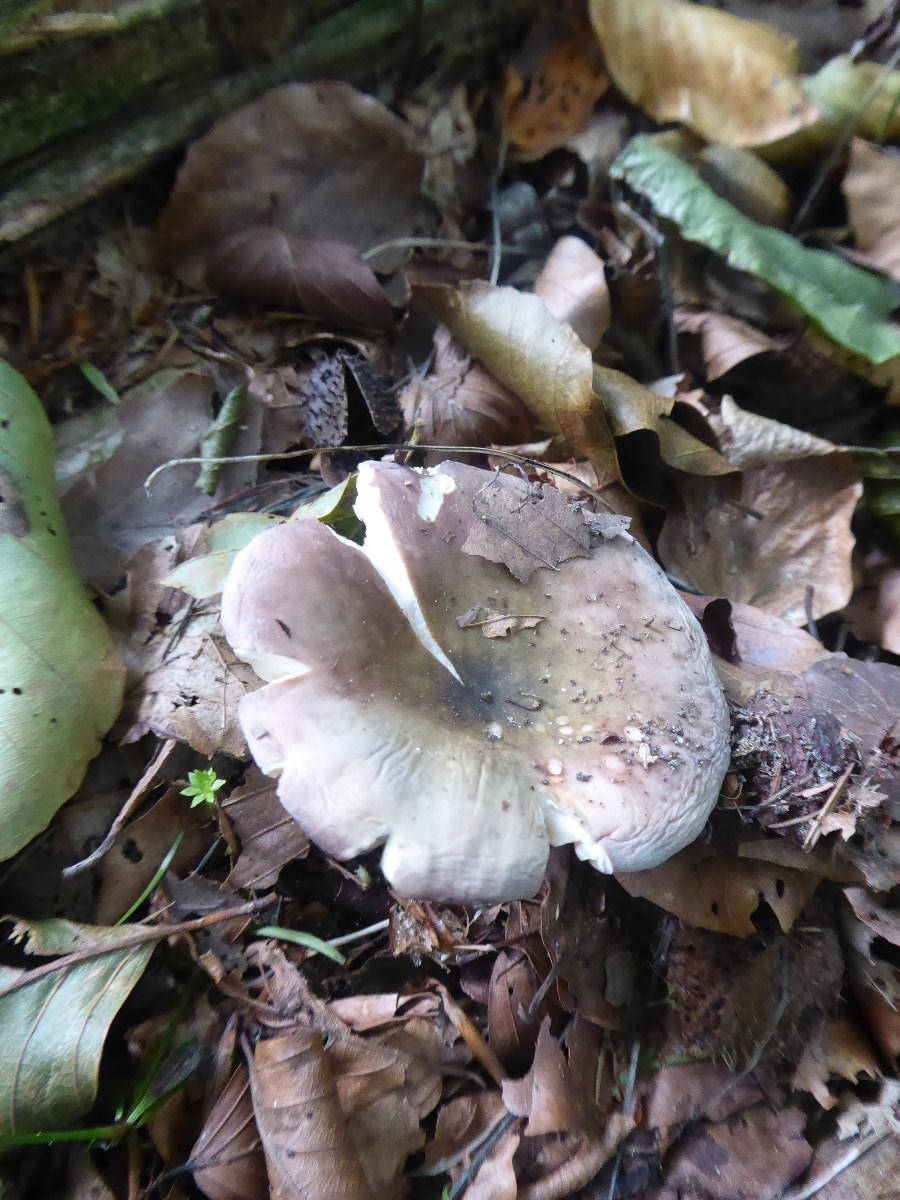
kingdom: Fungi
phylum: Basidiomycota
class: Agaricomycetes
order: Russulales
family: Russulaceae
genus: Russula
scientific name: Russula cyanoxantha
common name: broget skørhat
